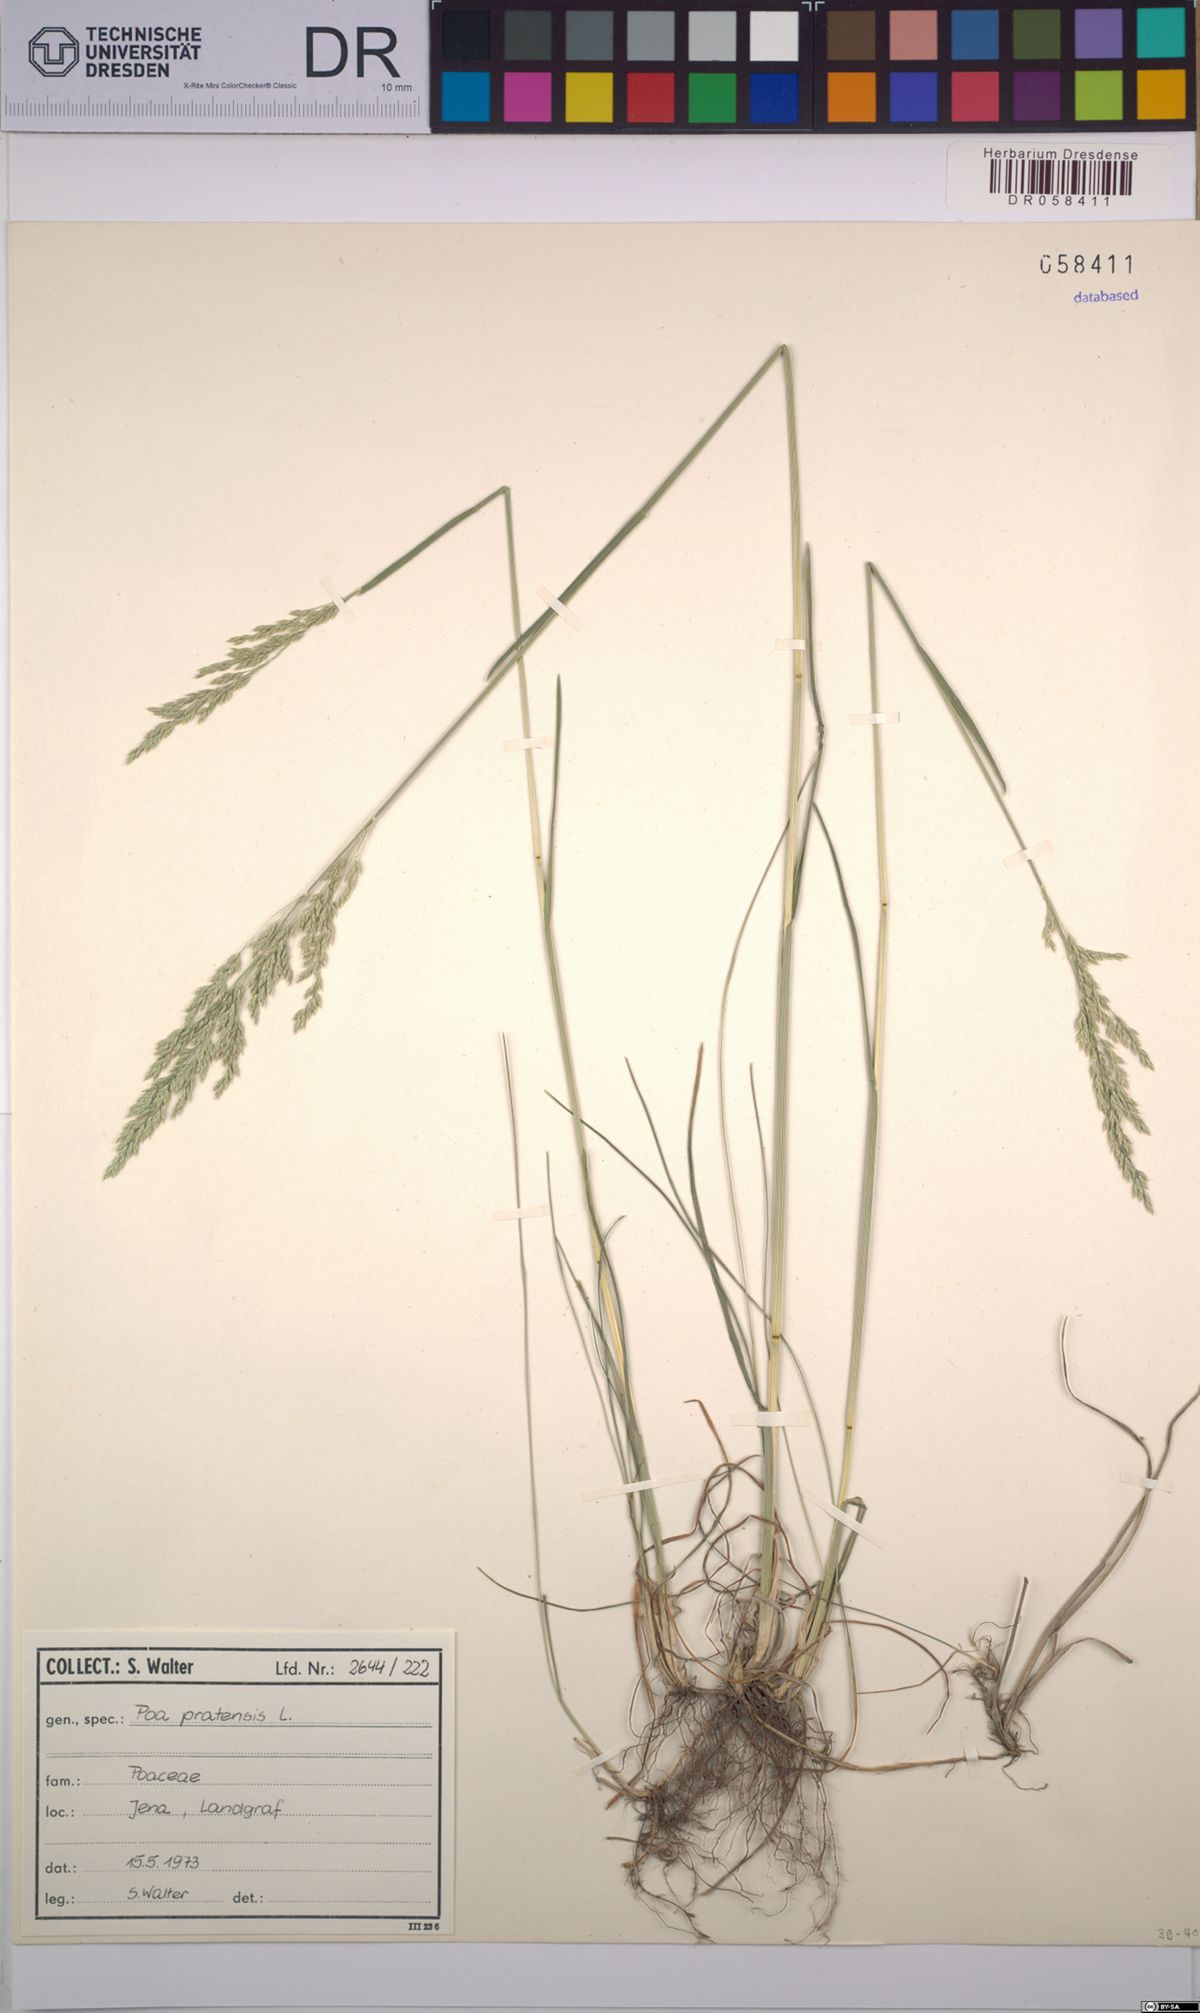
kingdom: Plantae
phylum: Tracheophyta
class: Liliopsida
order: Poales
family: Poaceae
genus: Poa
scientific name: Poa pratensis
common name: Kentucky bluegrass
